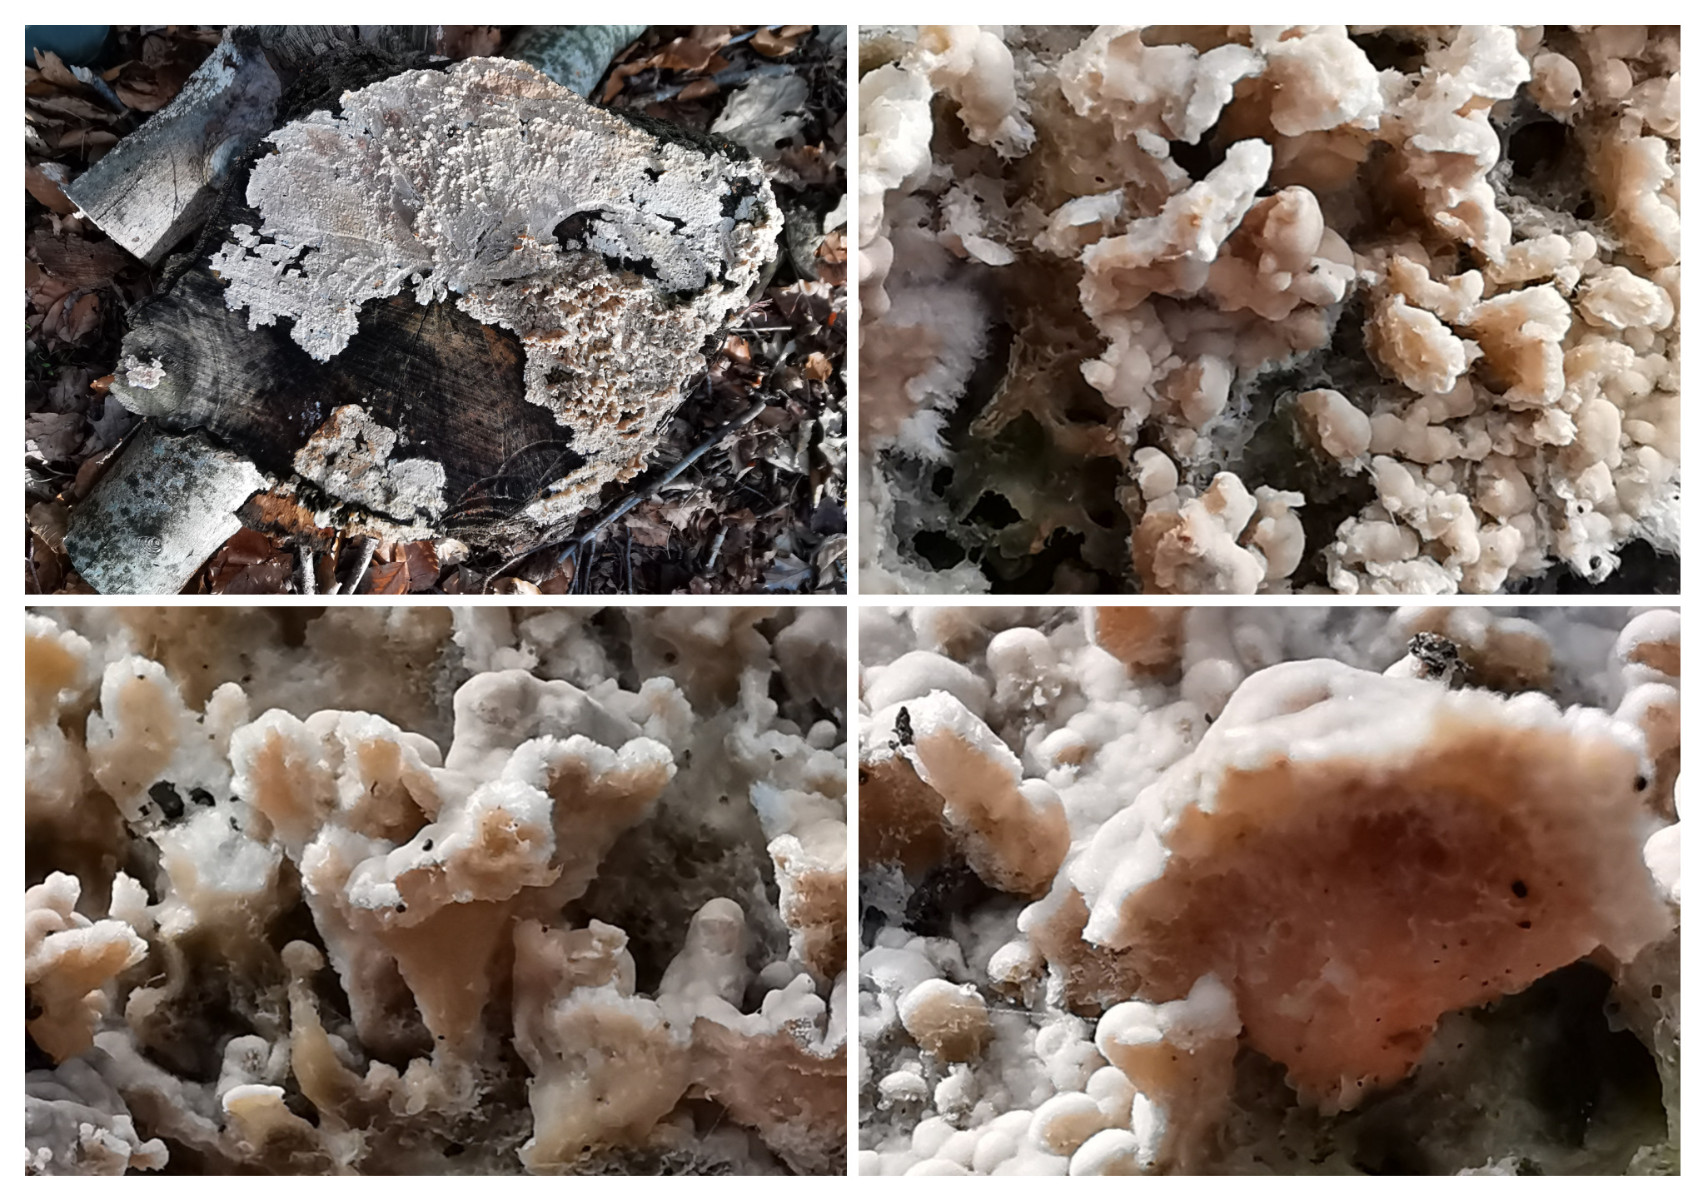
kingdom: Fungi
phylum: Basidiomycota
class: Agaricomycetes
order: Corticiales
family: Corticiaceae
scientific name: Corticiaceae
